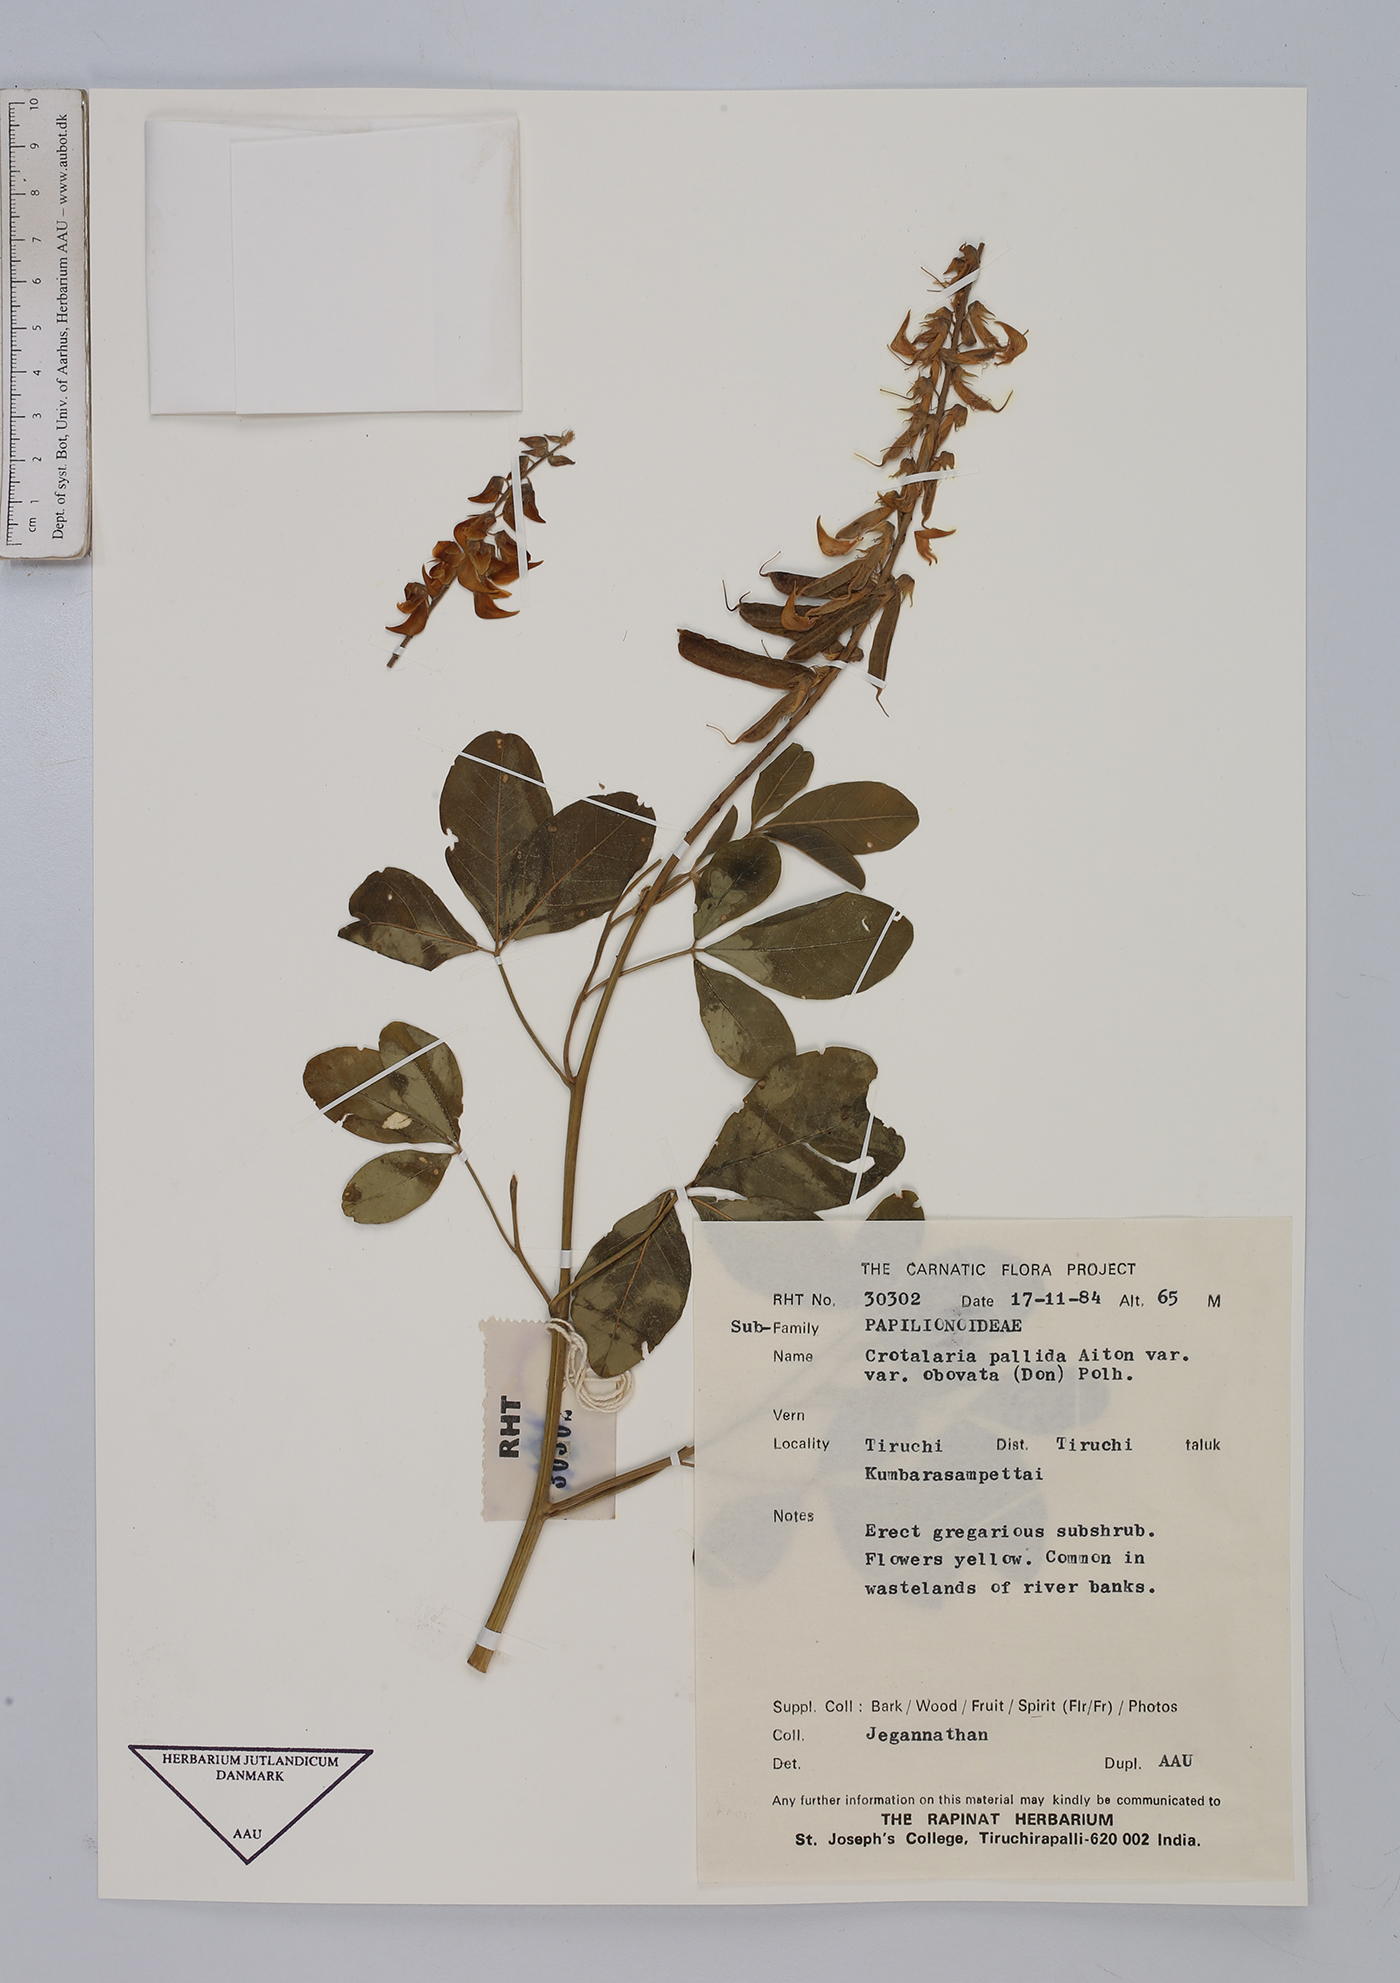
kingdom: Plantae
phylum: Tracheophyta
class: Magnoliopsida
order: Fabales
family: Fabaceae
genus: Crotalaria
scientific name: Crotalaria pallida
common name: Smooth rattlebox
